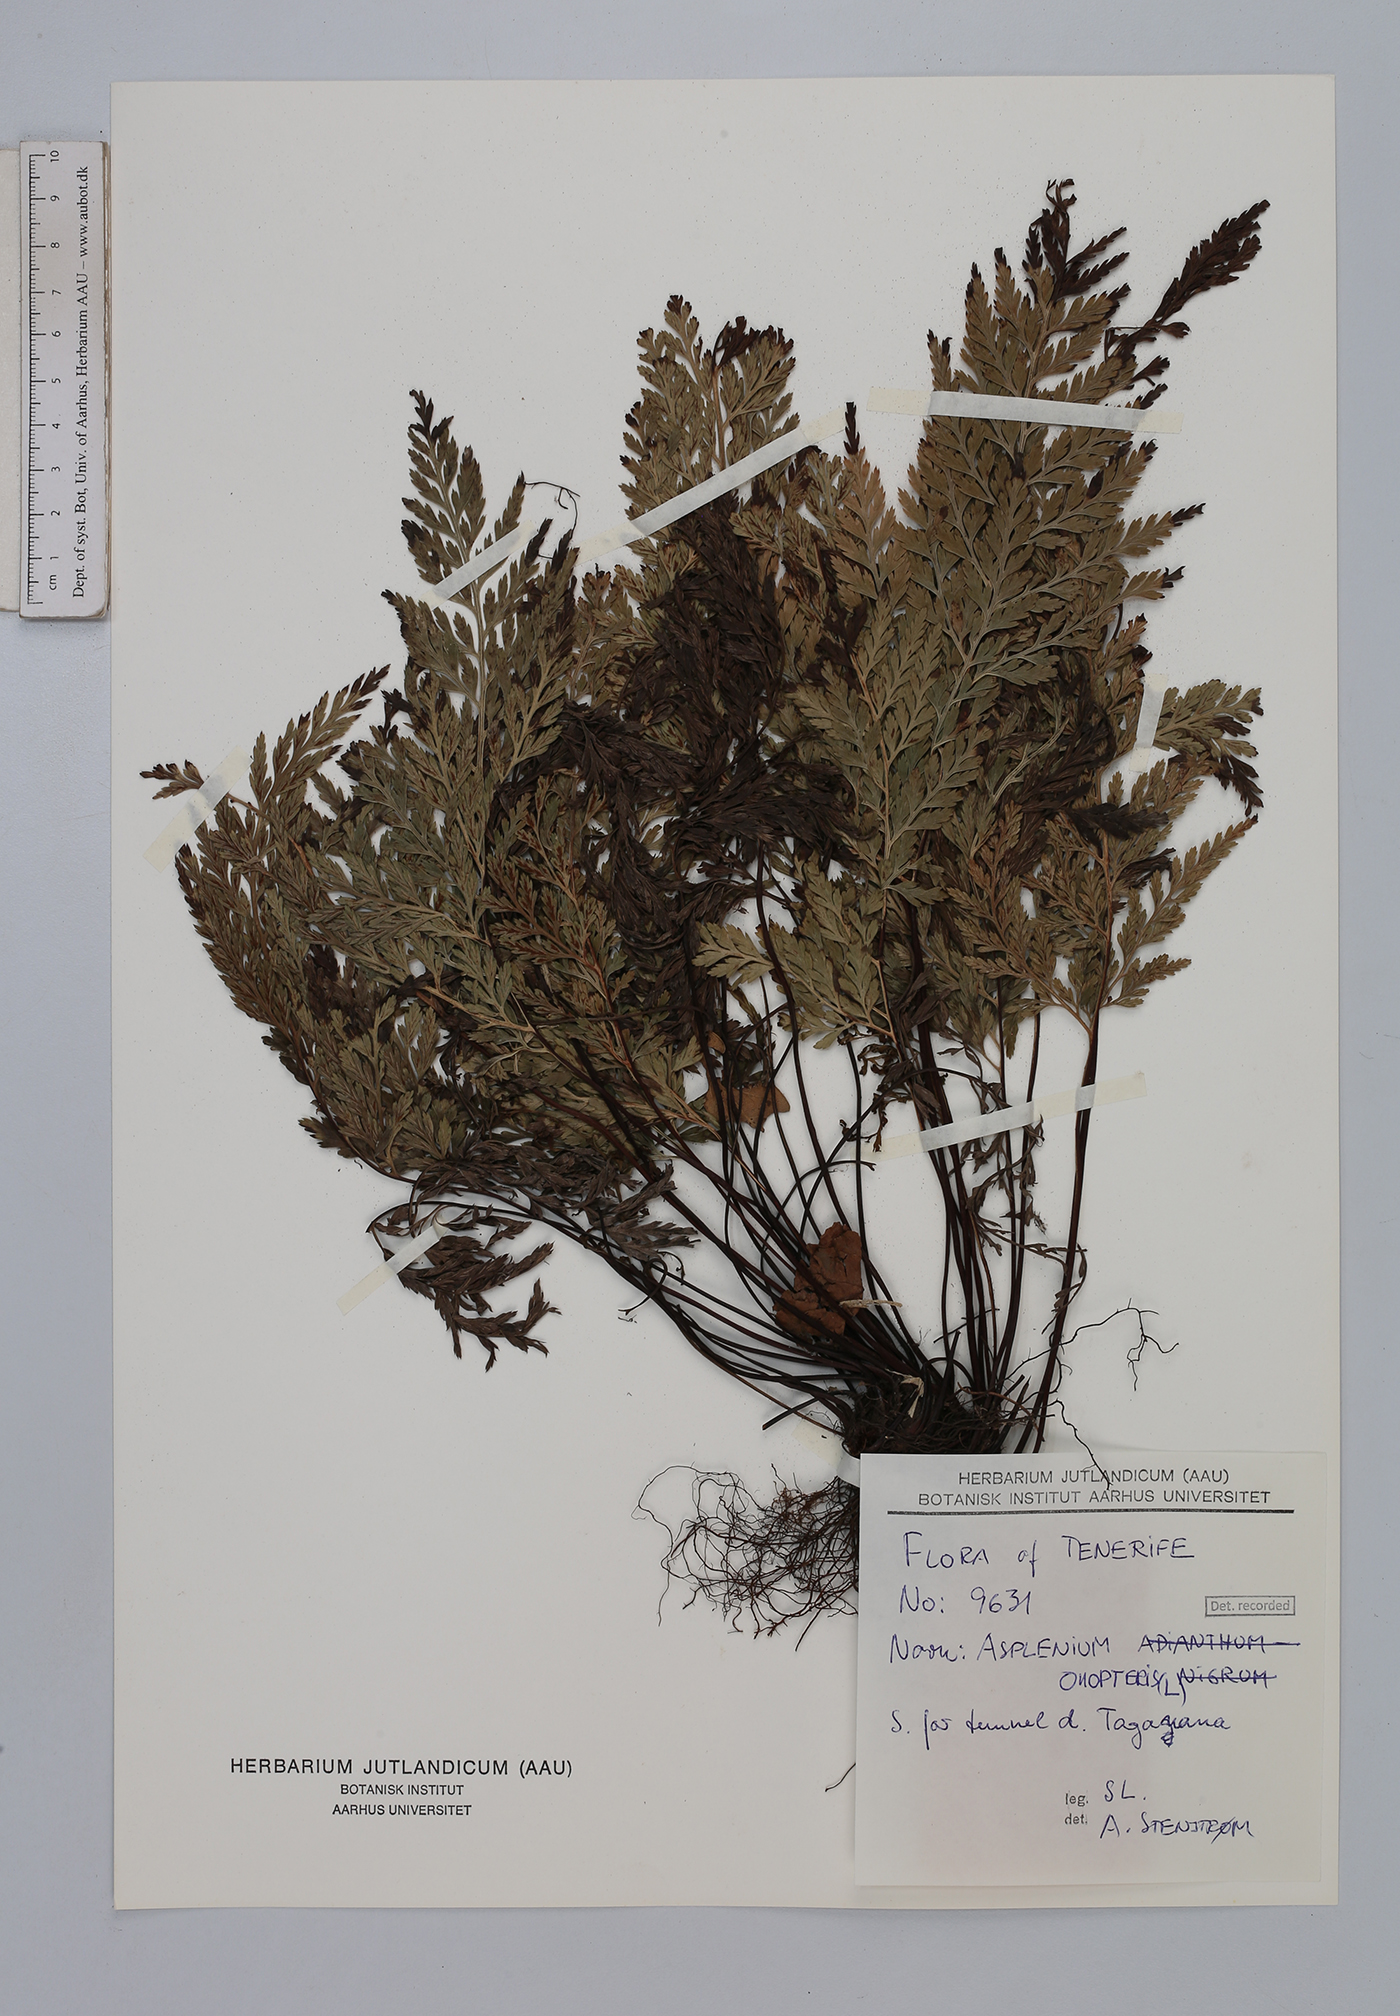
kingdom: Plantae
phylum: Tracheophyta
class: Polypodiopsida
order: Polypodiales
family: Aspleniaceae
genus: Asplenium
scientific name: Asplenium onopteris
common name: Irish spleenwort
